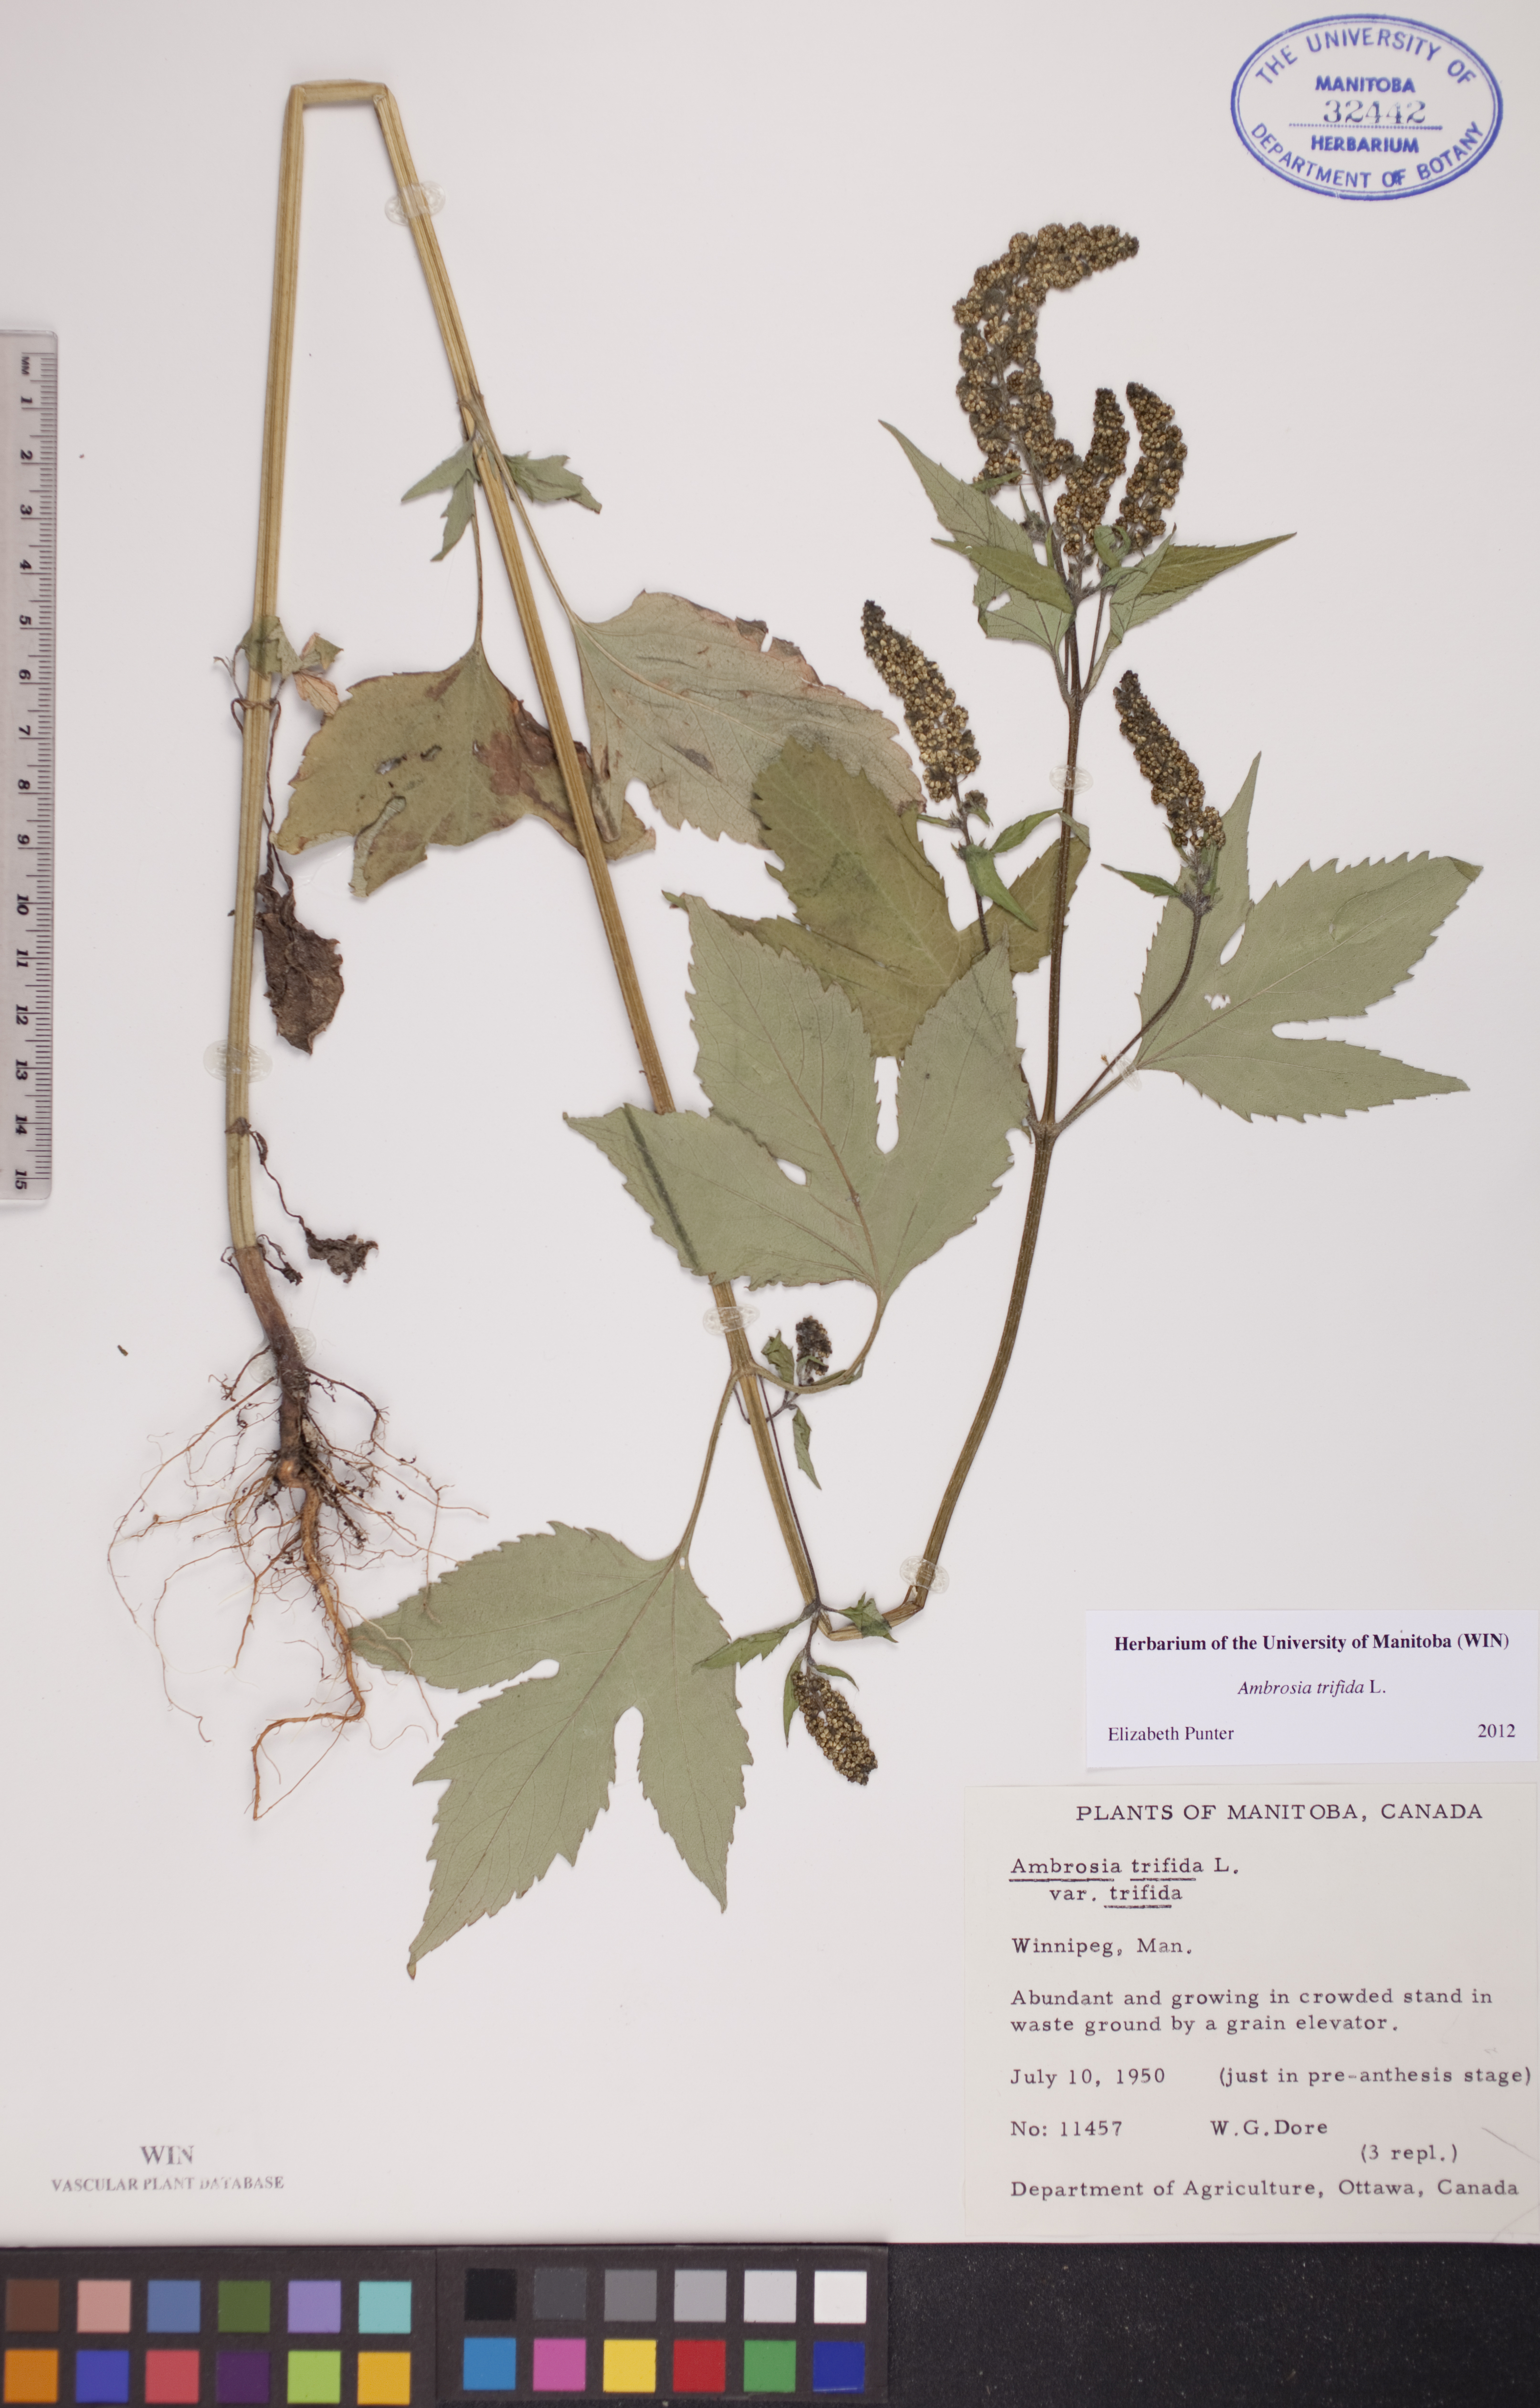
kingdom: Plantae
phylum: Tracheophyta
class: Magnoliopsida
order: Asterales
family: Asteraceae
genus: Ambrosia
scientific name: Ambrosia trifida
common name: Giant ragweed
